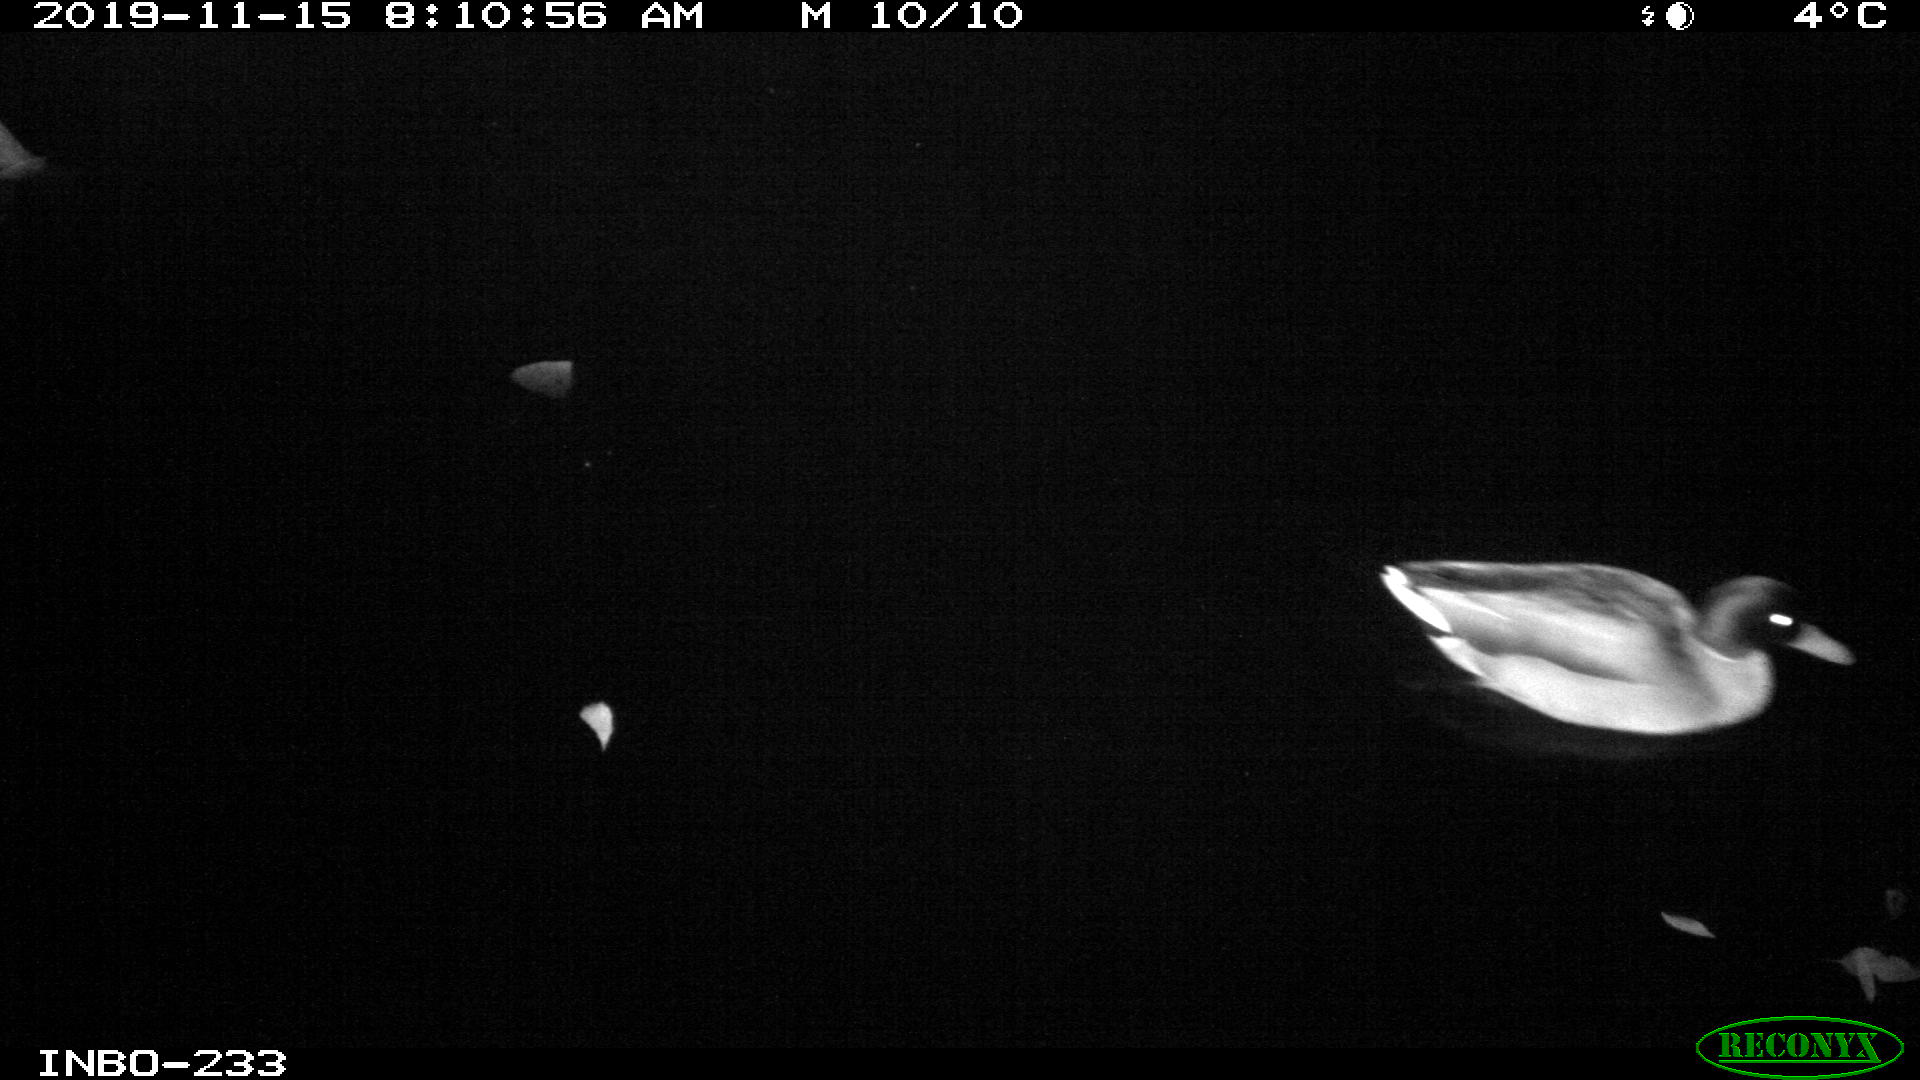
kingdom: Animalia
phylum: Chordata
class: Aves
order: Anseriformes
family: Anatidae
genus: Anas
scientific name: Anas platyrhynchos
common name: Mallard
